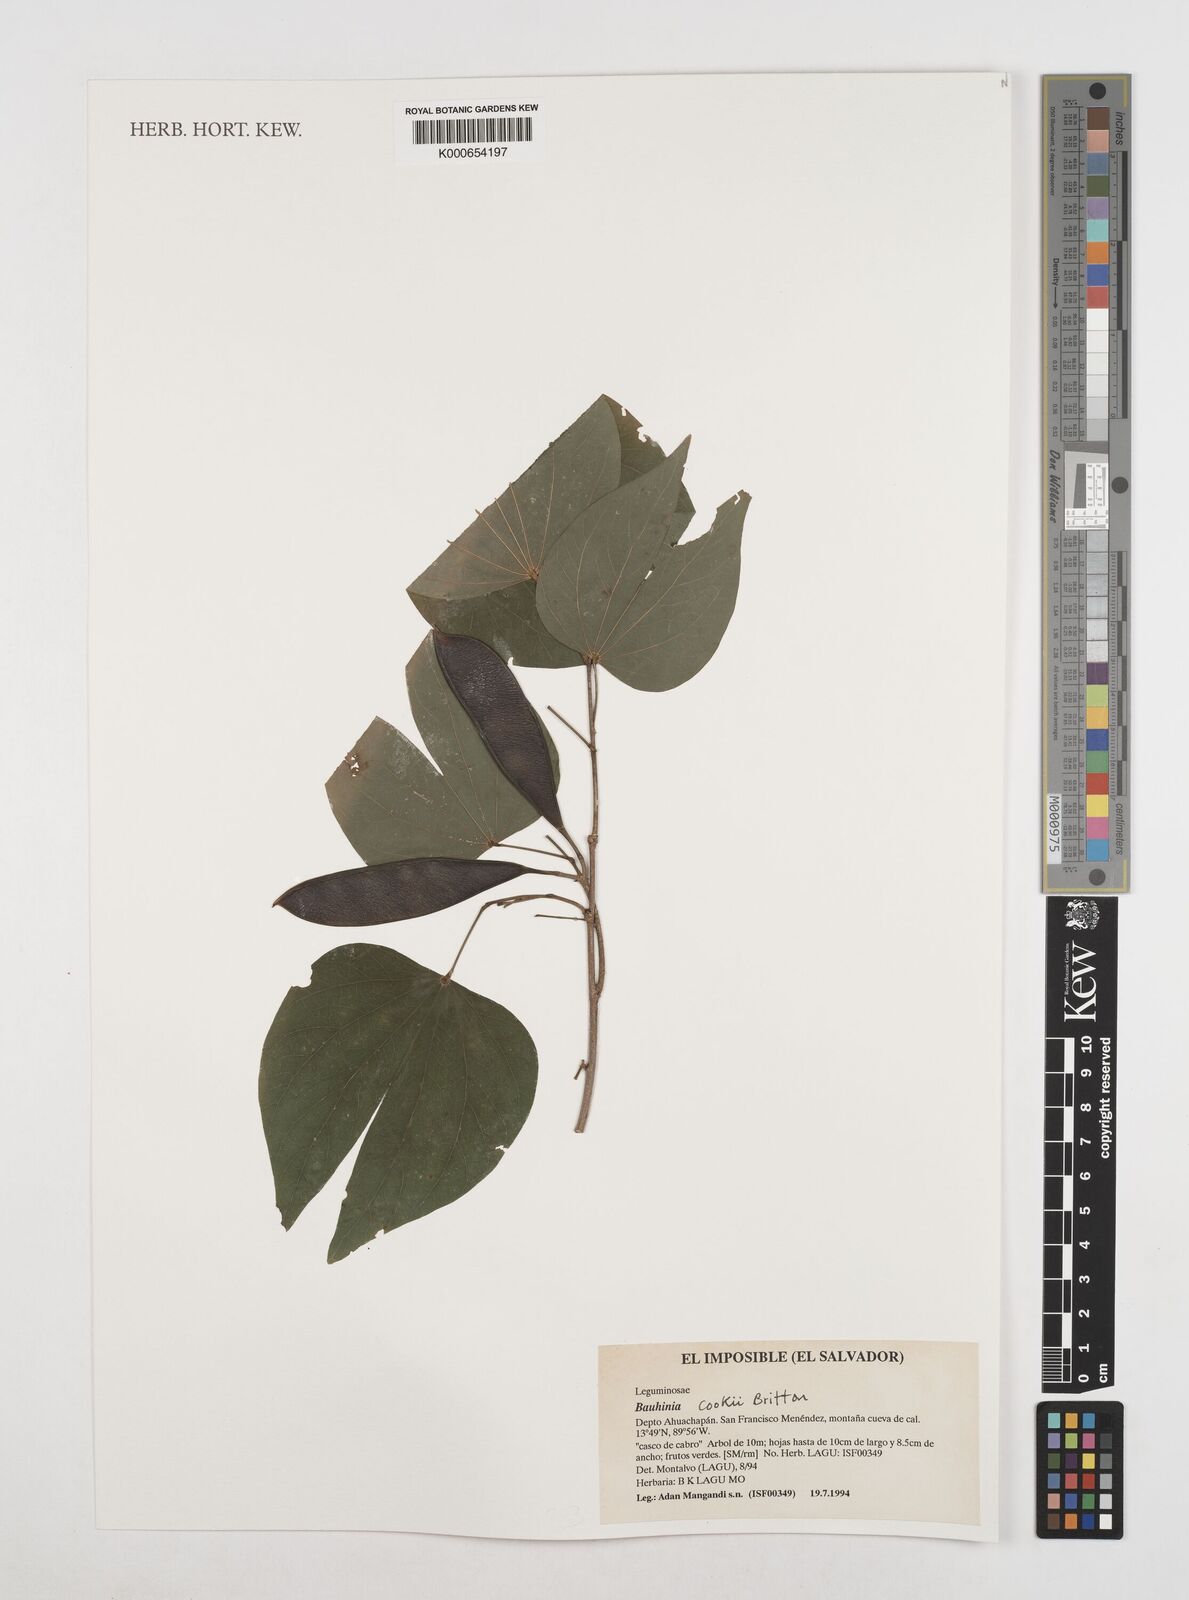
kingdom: Plantae
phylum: Tracheophyta
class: Magnoliopsida
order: Fabales
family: Fabaceae
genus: Bauhinia
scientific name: Bauhinia cookii
